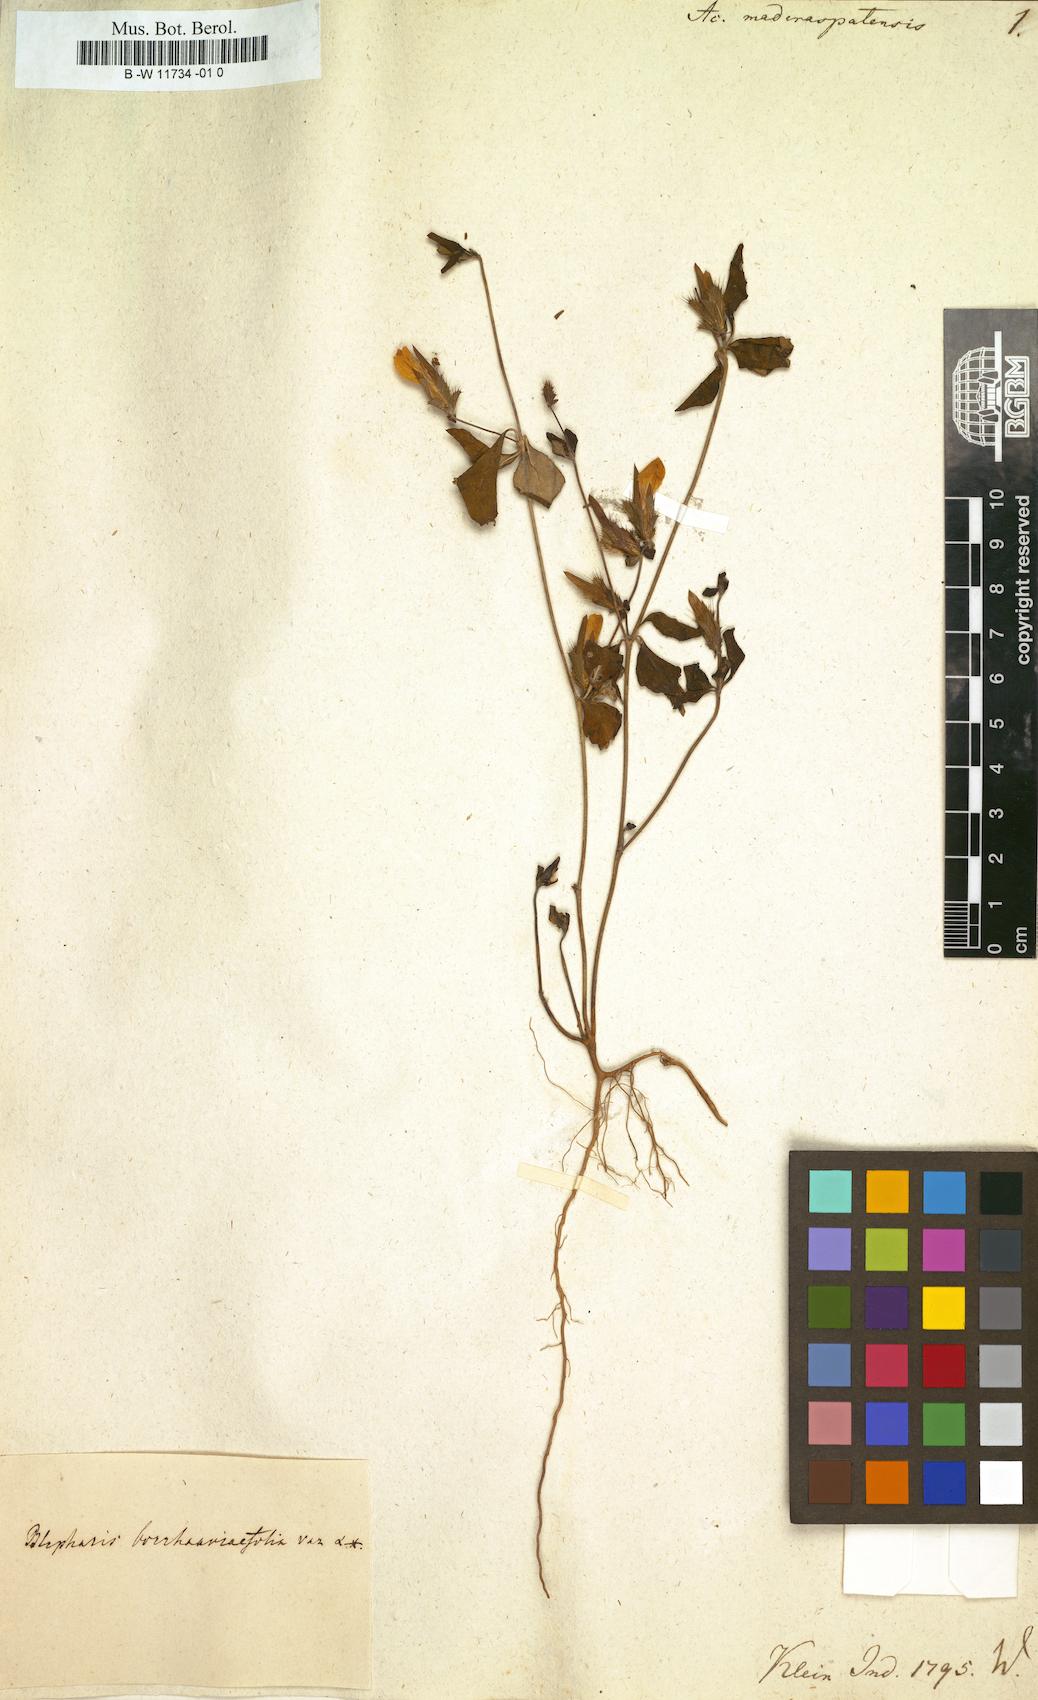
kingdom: Plantae
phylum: Tracheophyta
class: Magnoliopsida
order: Lamiales
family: Acanthaceae
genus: Blepharis
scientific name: Blepharis maderaspatensis
